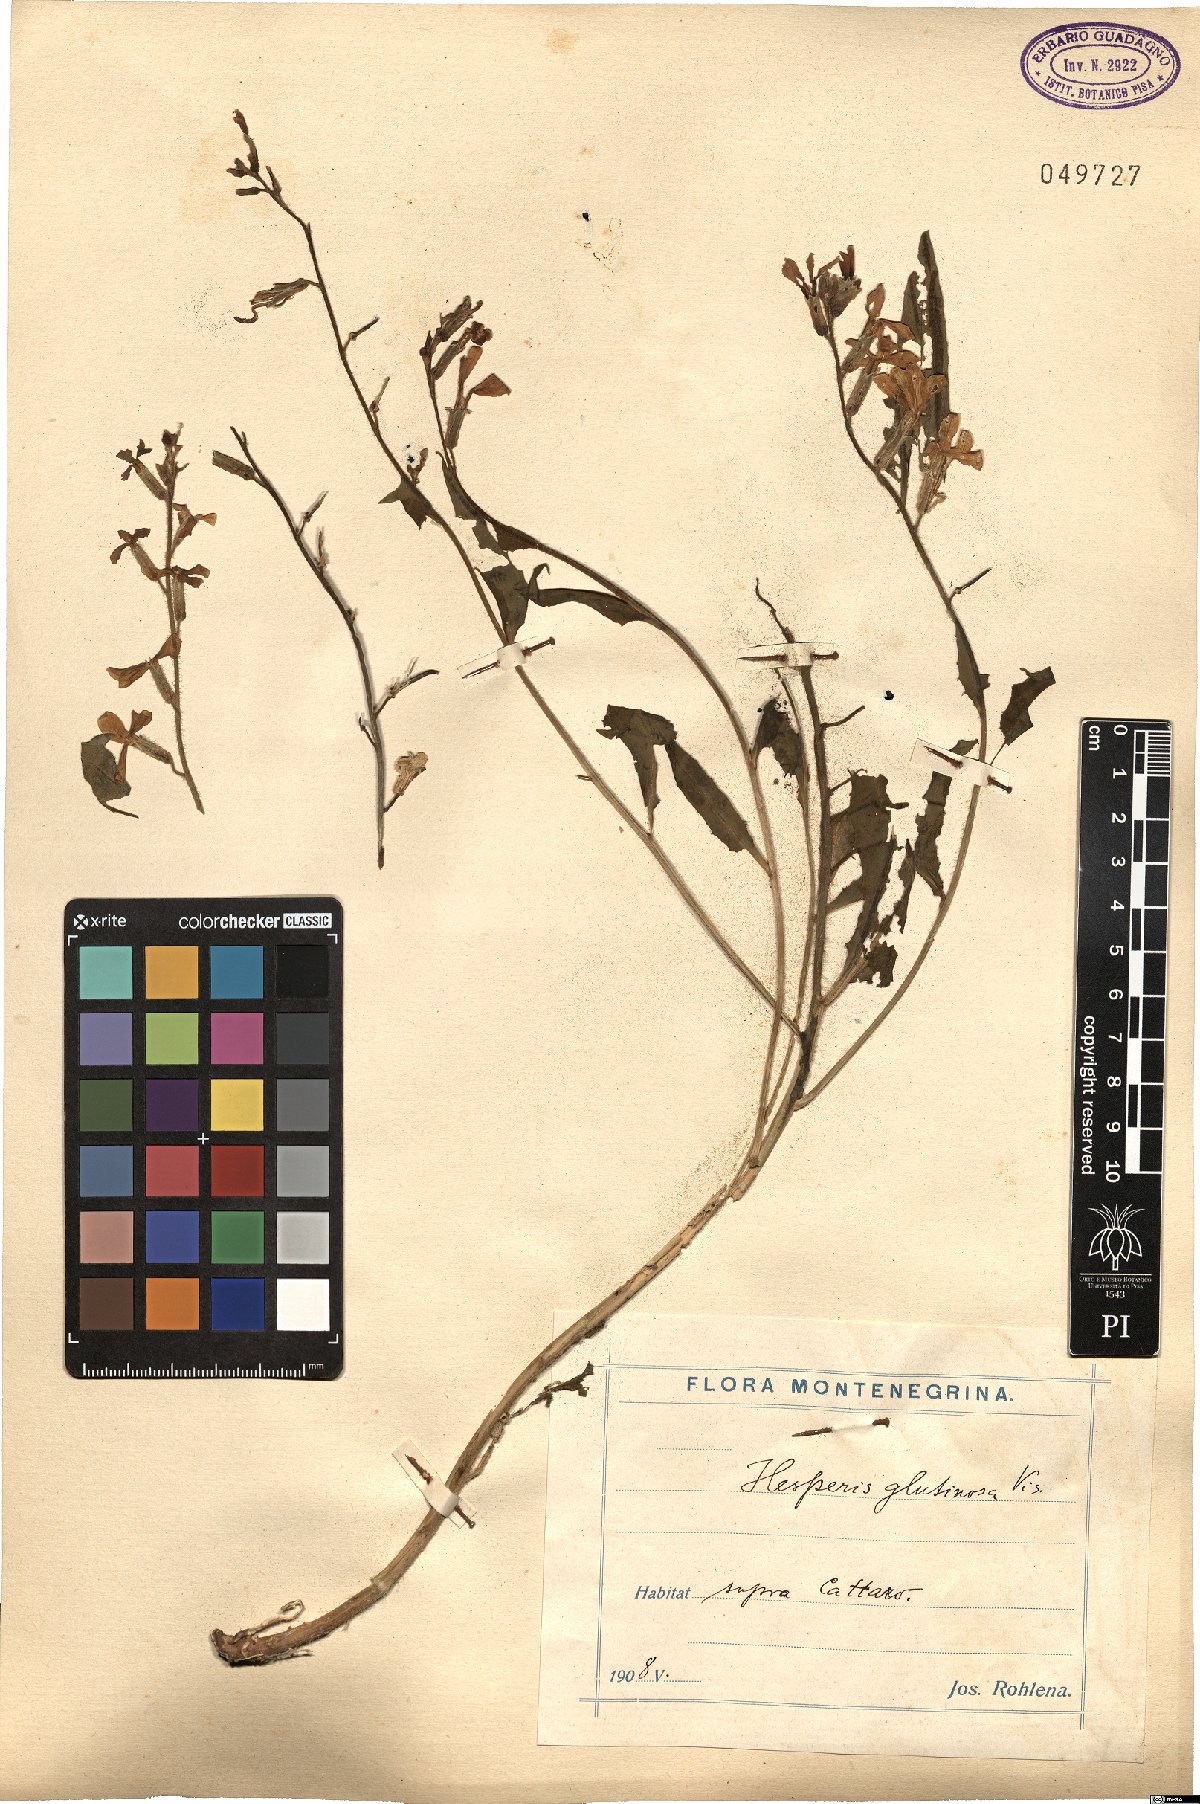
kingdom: Plantae
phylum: Tracheophyta
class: Magnoliopsida
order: Brassicales
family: Brassicaceae
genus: Hesperis
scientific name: Hesperis laciniata
